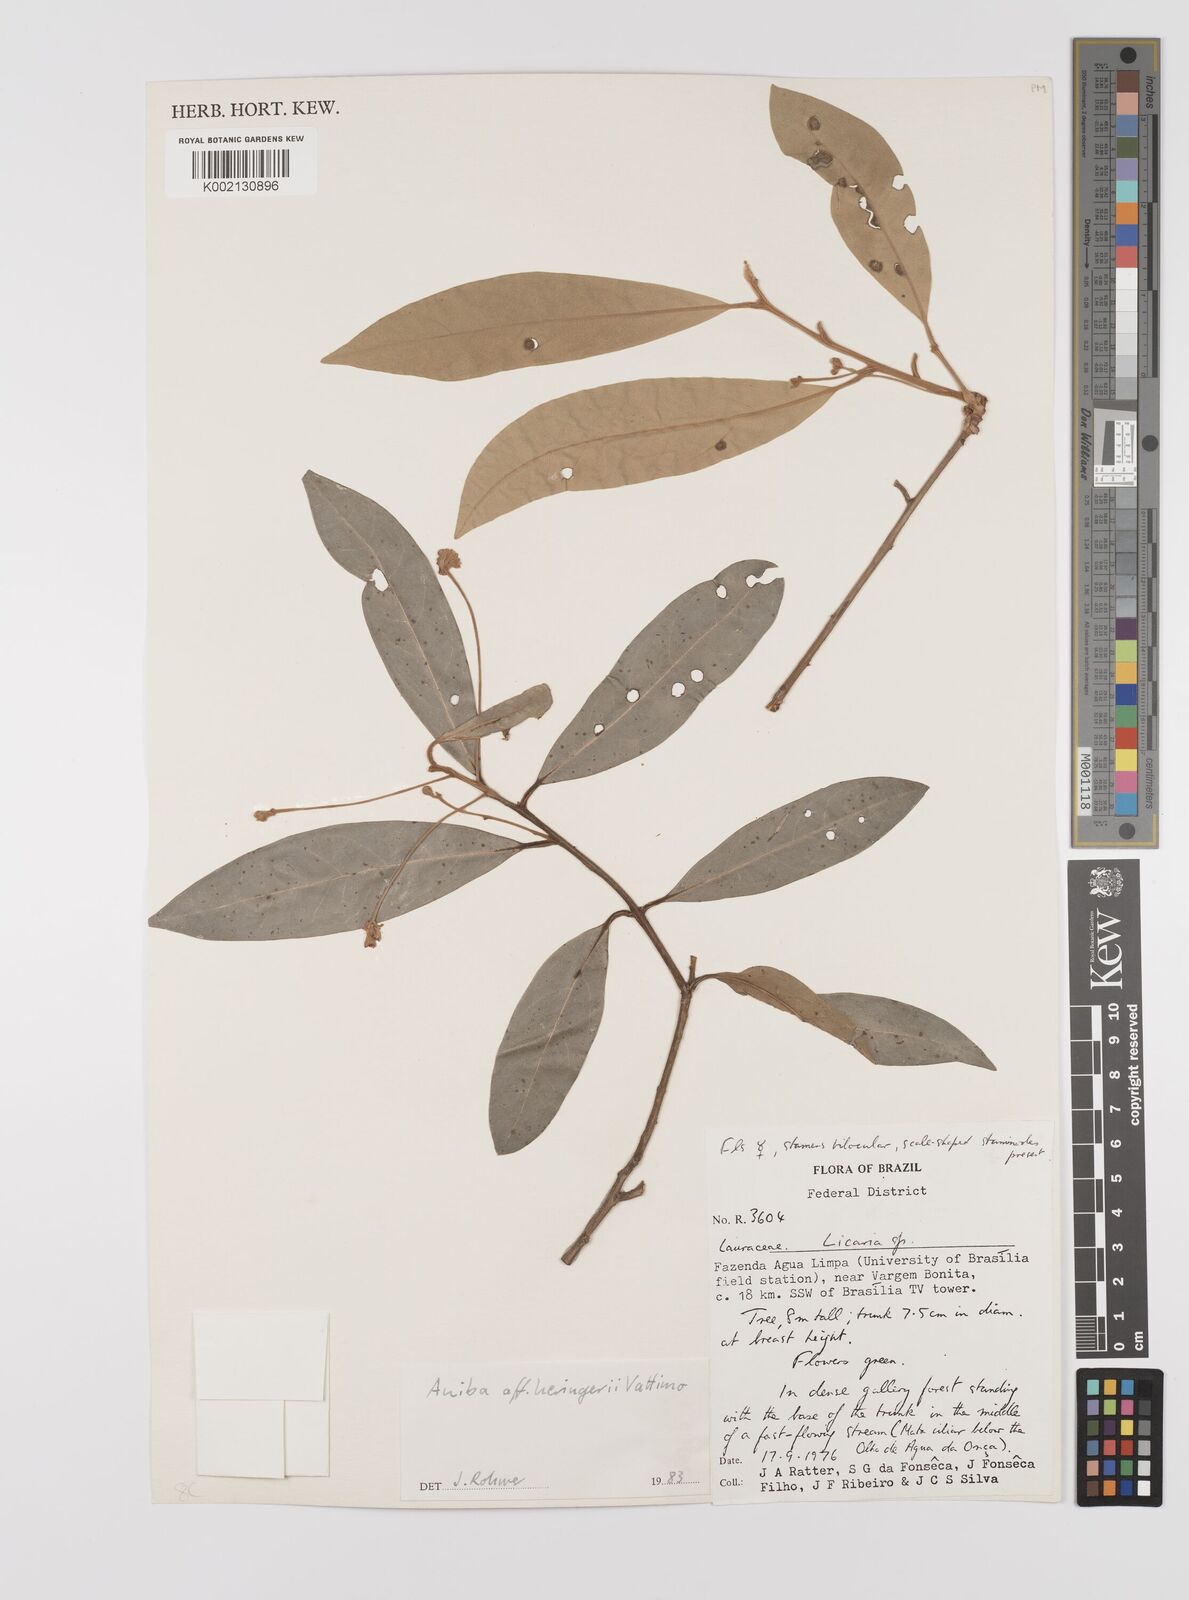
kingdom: Plantae
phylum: Tracheophyta
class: Magnoliopsida
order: Laurales
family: Lauraceae
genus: Aniba
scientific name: Aniba heringeri
